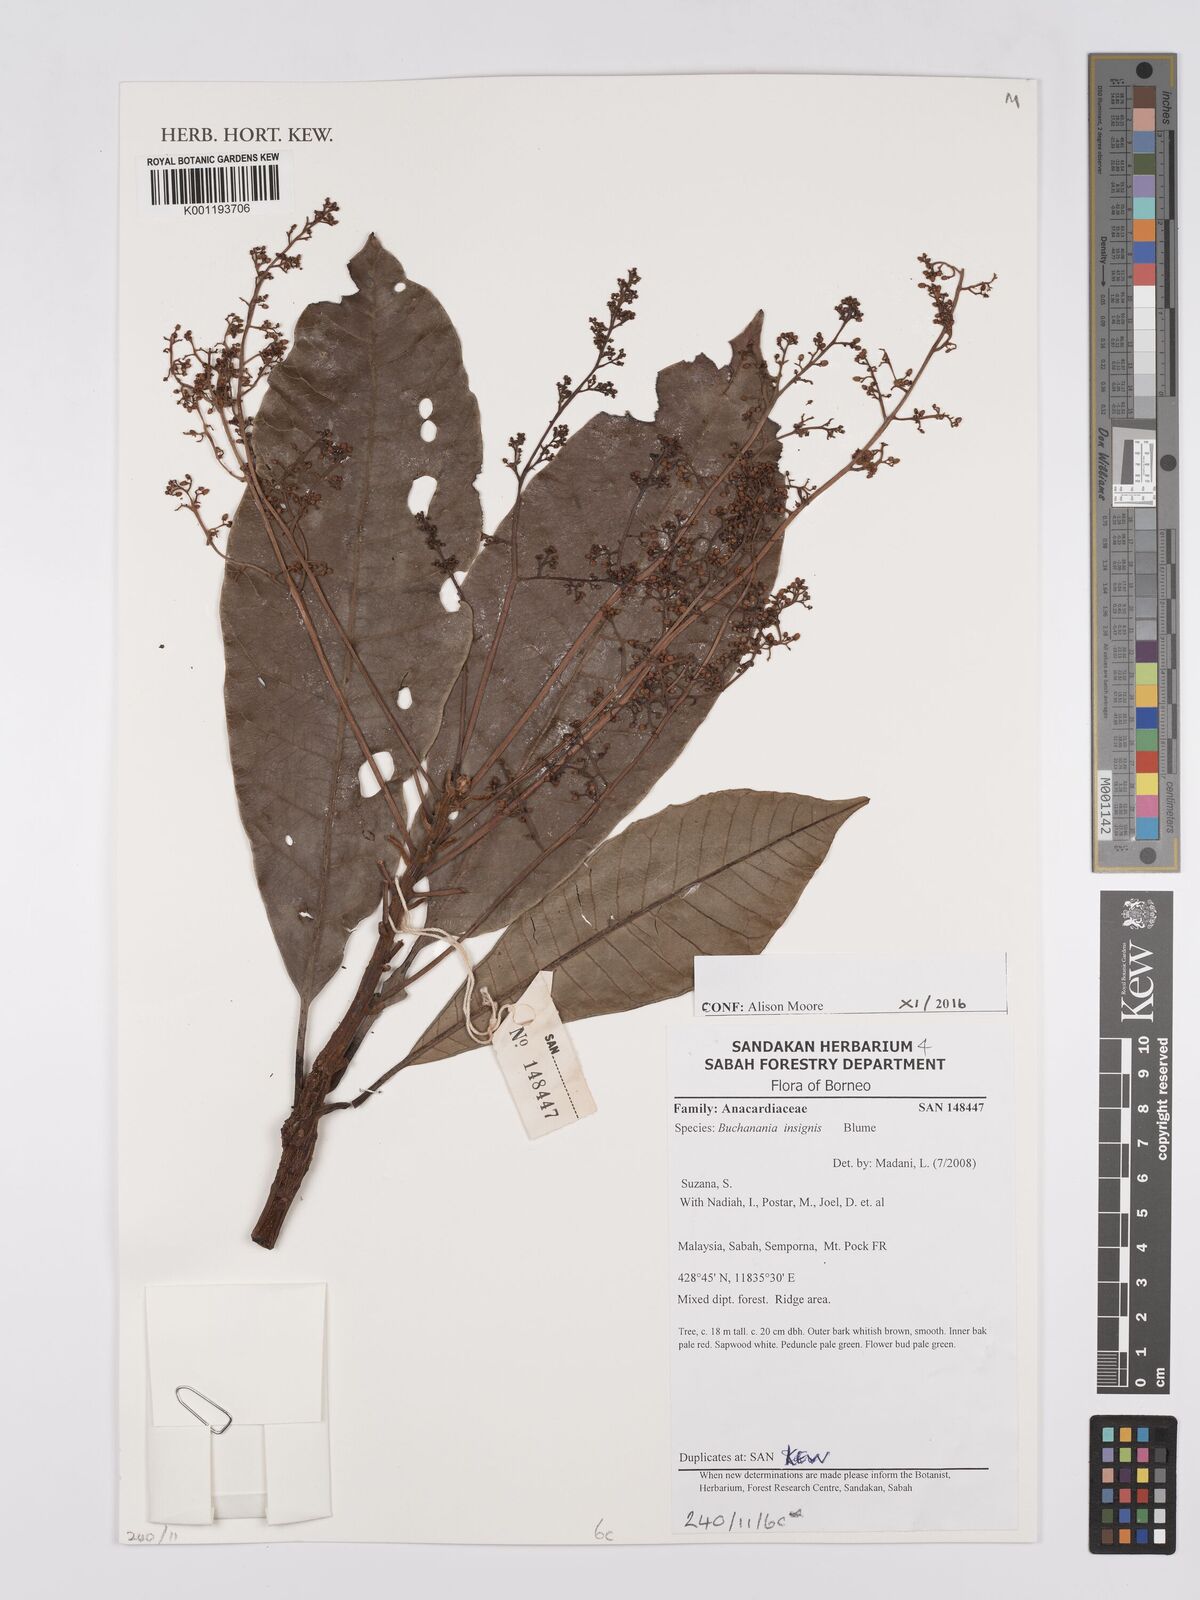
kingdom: Plantae
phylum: Tracheophyta
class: Magnoliopsida
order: Sapindales
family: Anacardiaceae
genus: Buchanania
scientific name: Buchanania insignis
